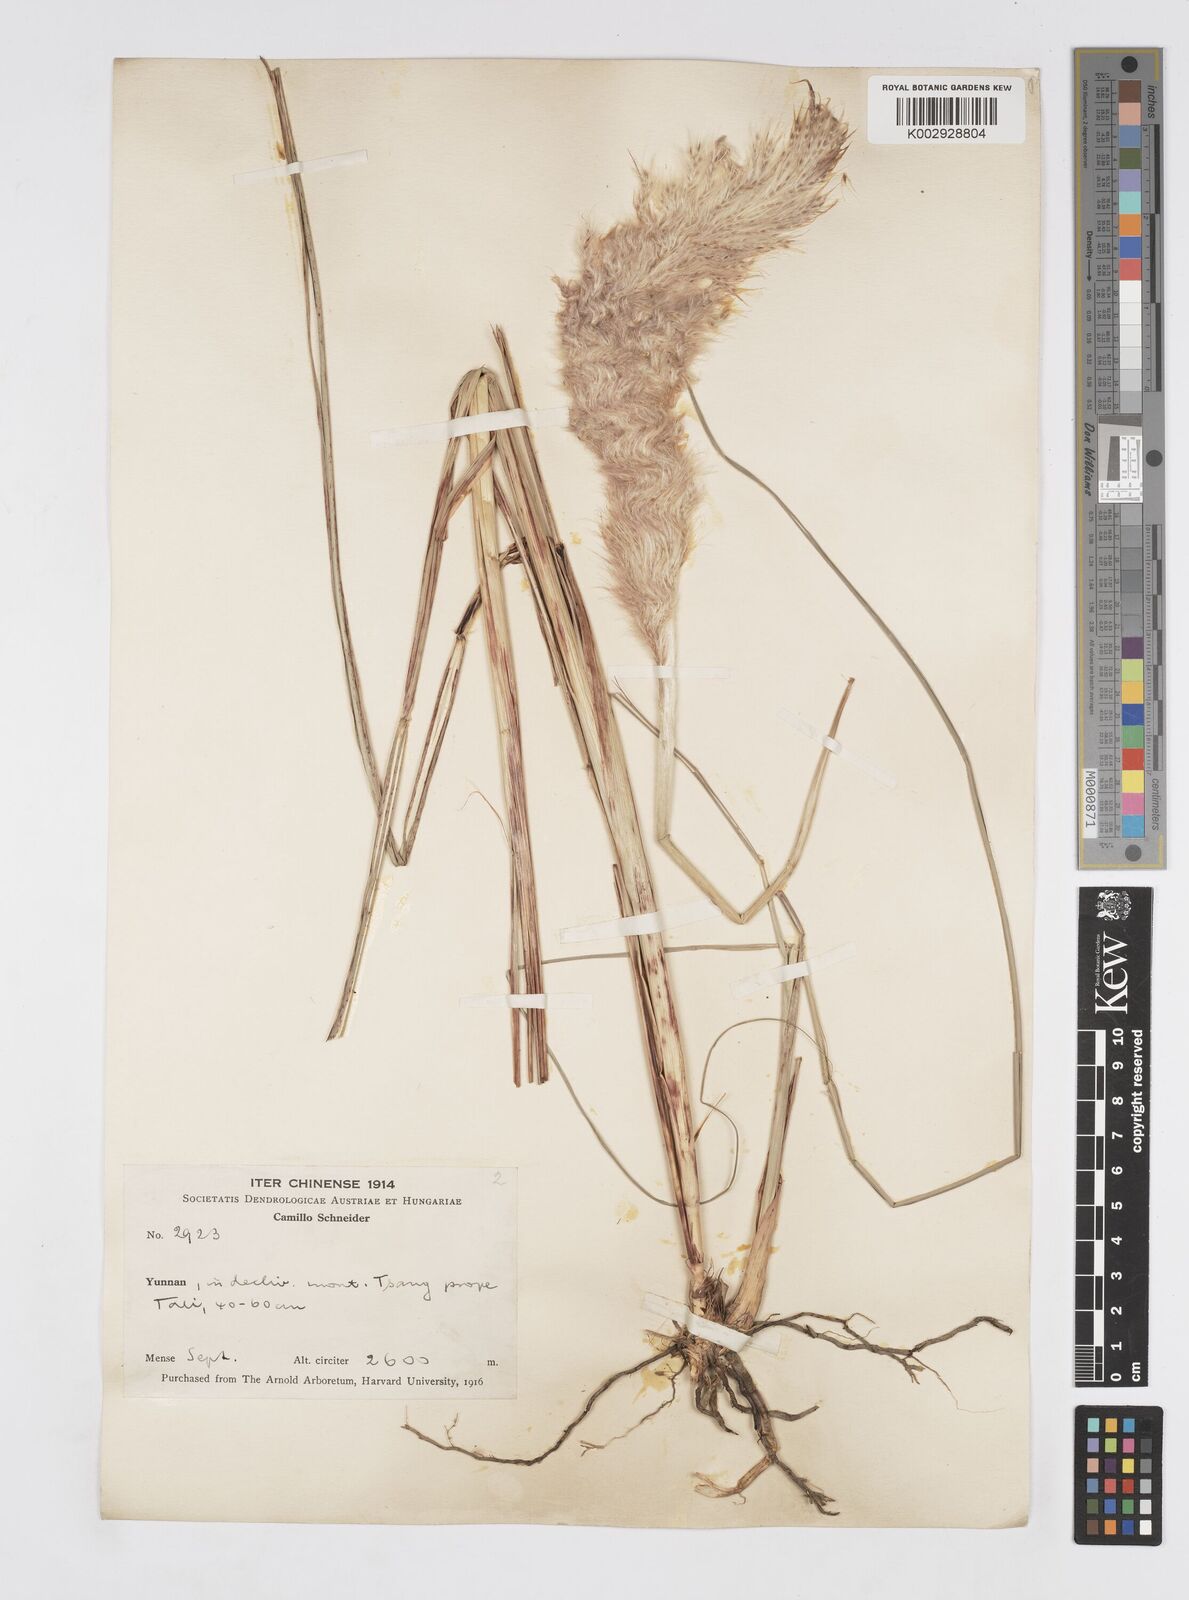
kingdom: Plantae
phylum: Tracheophyta
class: Liliopsida
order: Poales
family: Poaceae
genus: Tripidium
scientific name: Tripidium rufipilum
